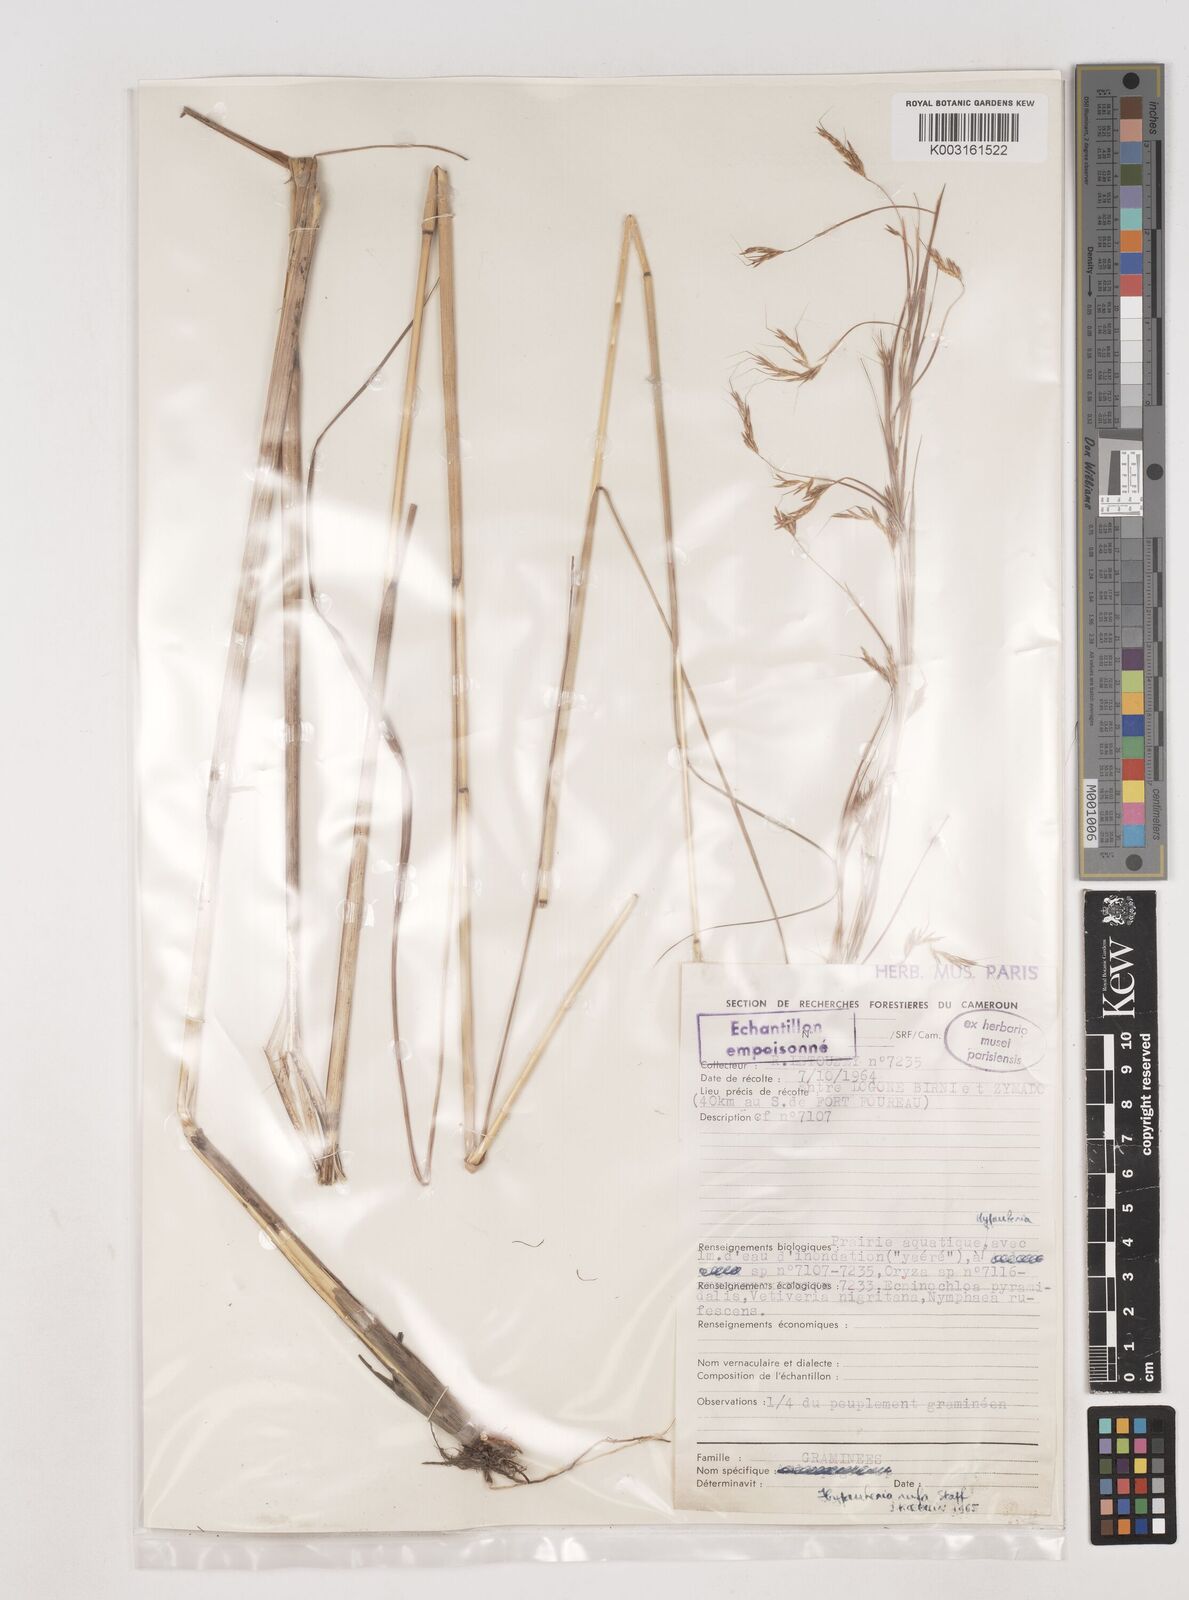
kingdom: Plantae
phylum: Tracheophyta
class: Liliopsida
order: Poales
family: Poaceae
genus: Hyparrhenia
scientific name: Hyparrhenia rufa
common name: Jaraguagrass
